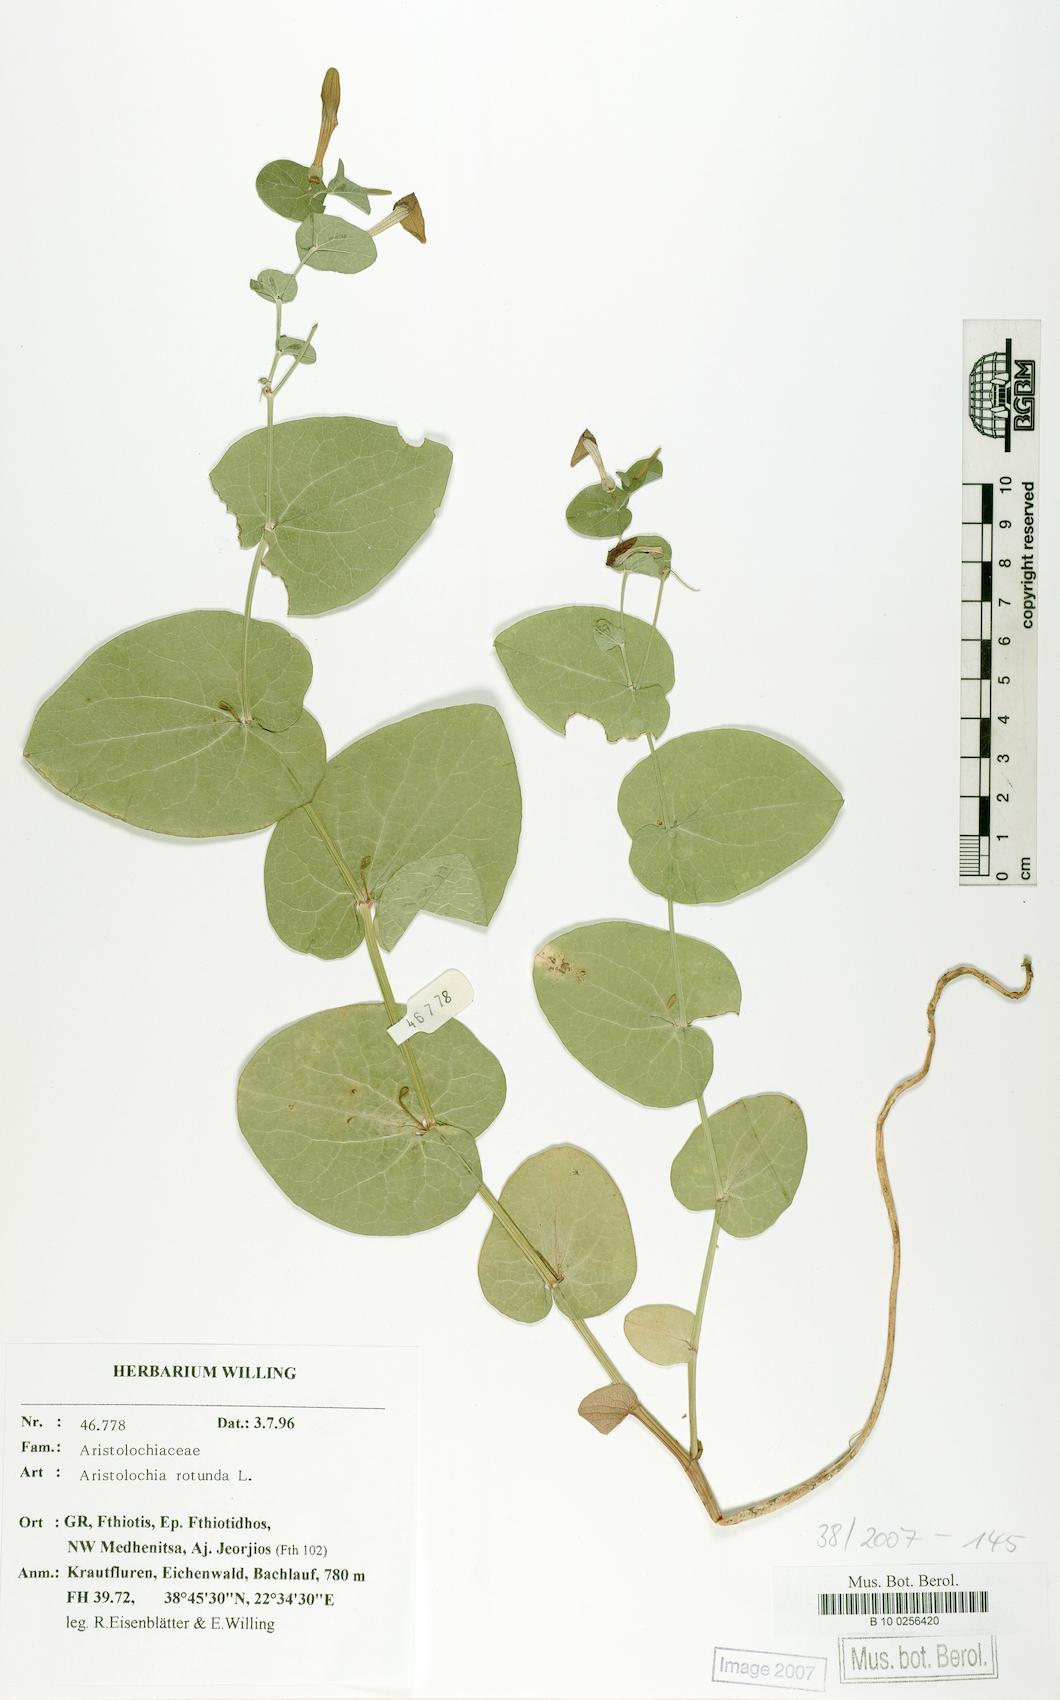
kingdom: Plantae
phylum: Tracheophyta
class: Magnoliopsida
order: Piperales
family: Aristolochiaceae
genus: Aristolochia
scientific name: Aristolochia rotunda
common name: Smearwort
